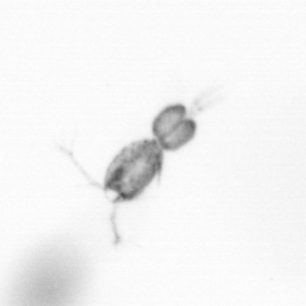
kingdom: Animalia
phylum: Arthropoda
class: Copepoda
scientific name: Copepoda
